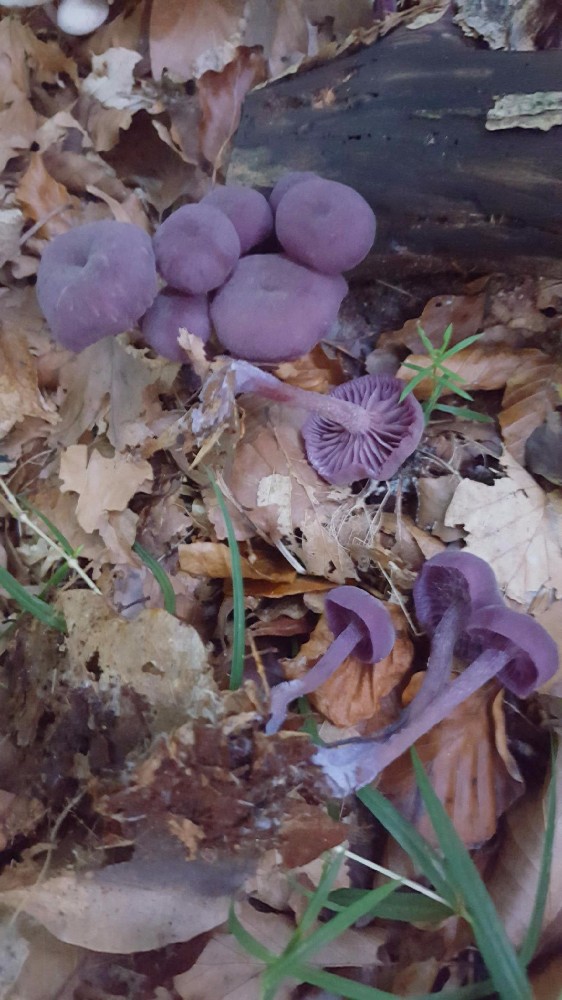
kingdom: Fungi
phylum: Basidiomycota
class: Agaricomycetes
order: Agaricales
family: Hydnangiaceae
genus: Laccaria
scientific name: Laccaria amethystina
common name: violet ametysthat
